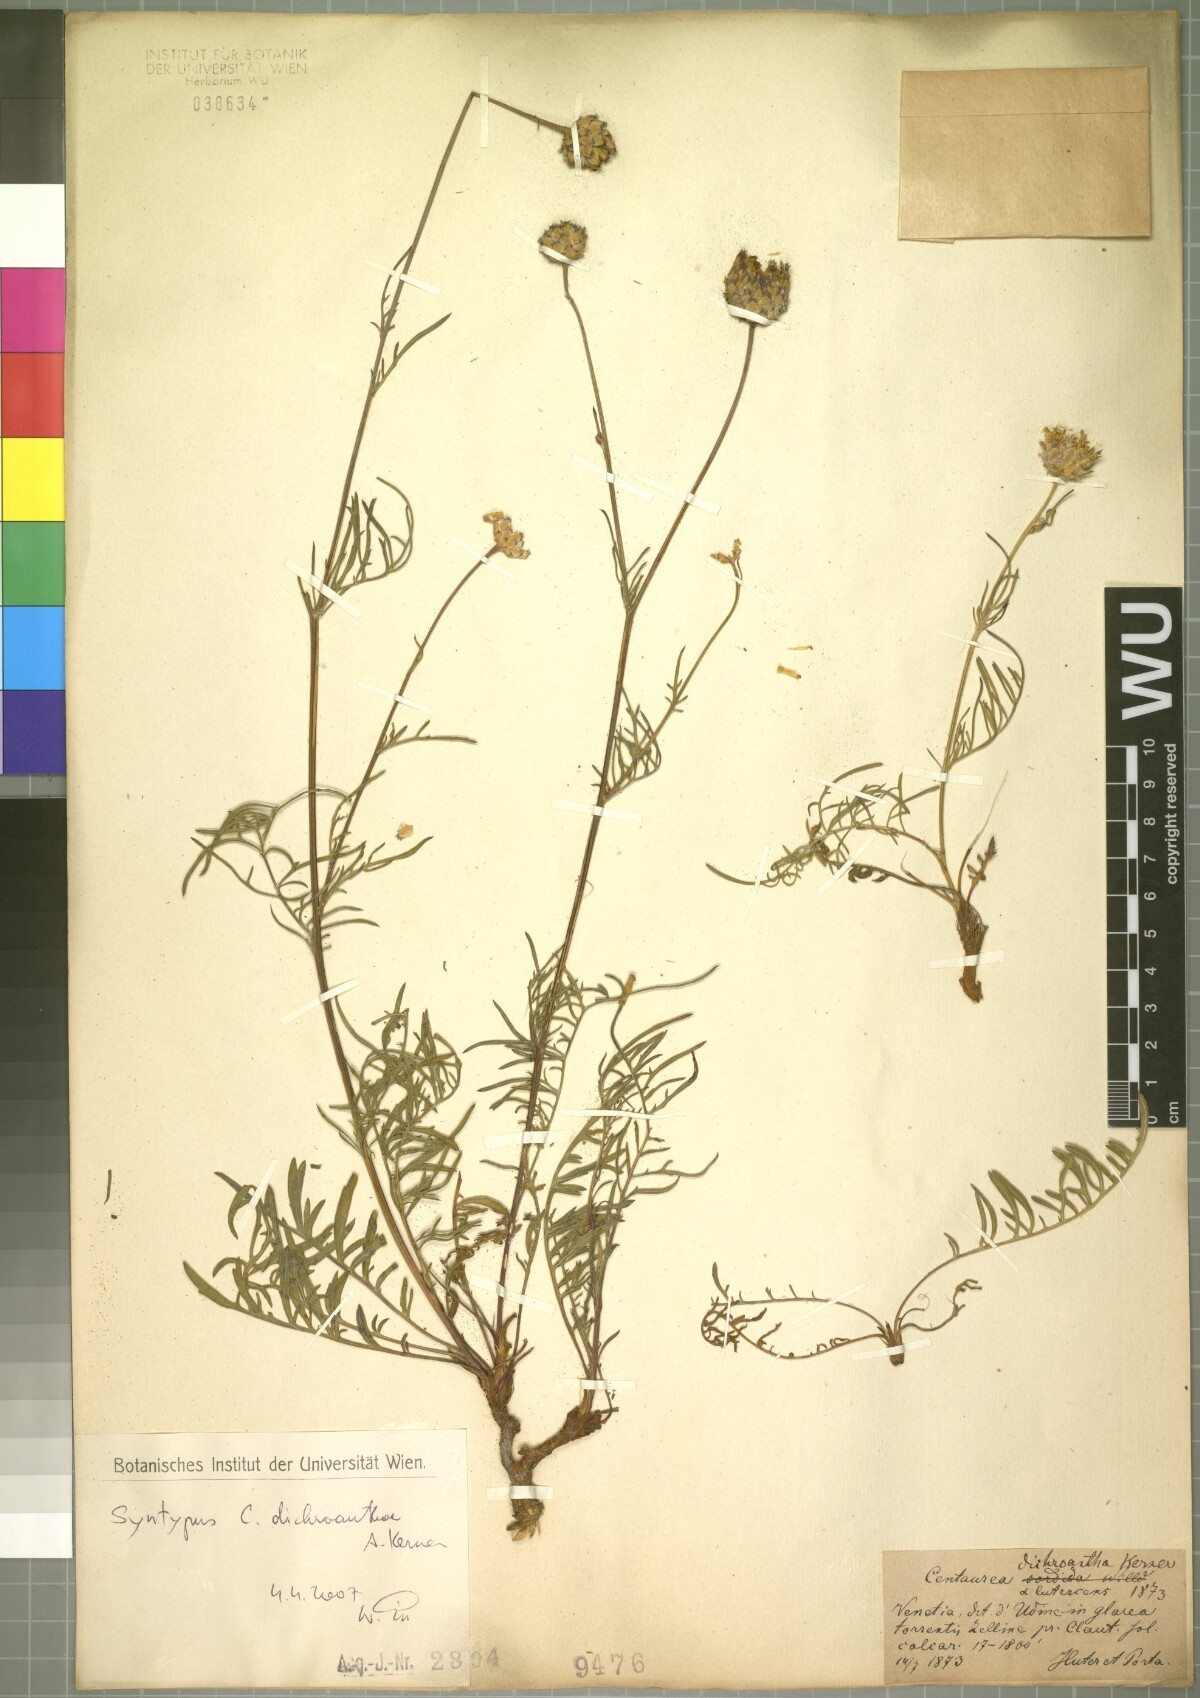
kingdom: Plantae
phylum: Tracheophyta
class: Magnoliopsida
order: Asterales
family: Asteraceae
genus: Centaurea
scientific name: Centaurea dichroantha
